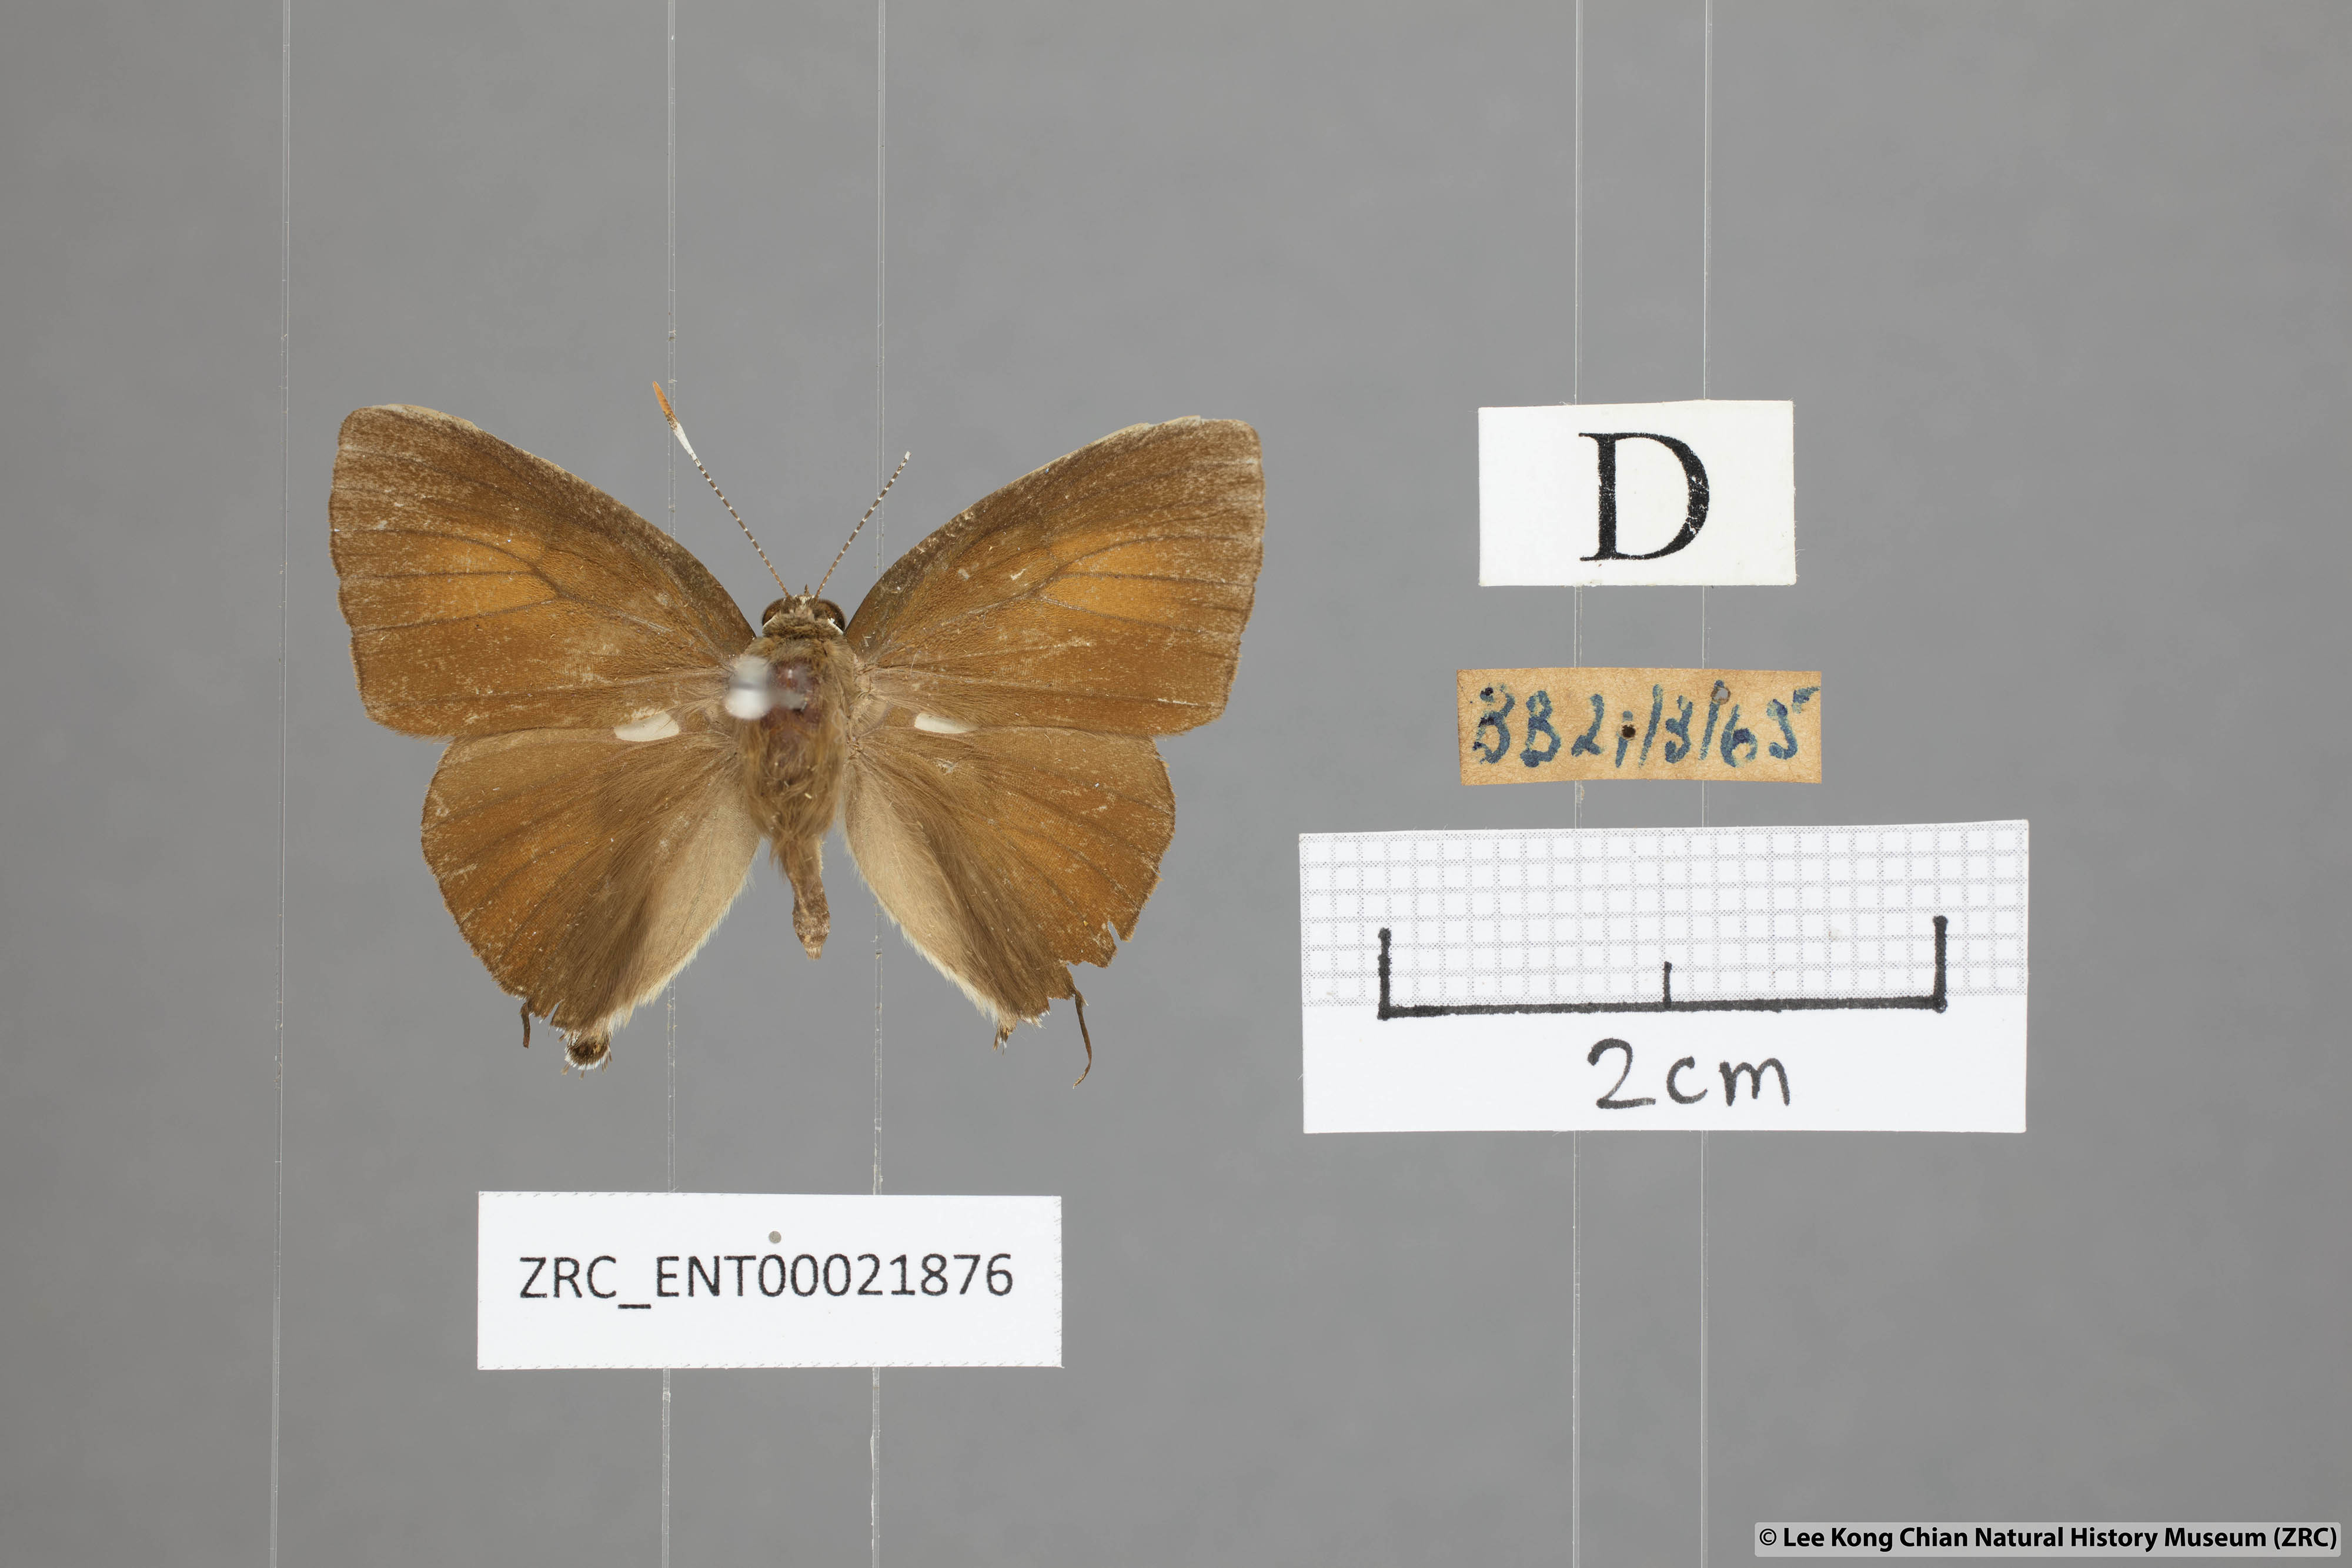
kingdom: Animalia
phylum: Arthropoda
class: Insecta
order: Lepidoptera
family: Lycaenidae
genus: Rapala
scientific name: Rapala pheretima
